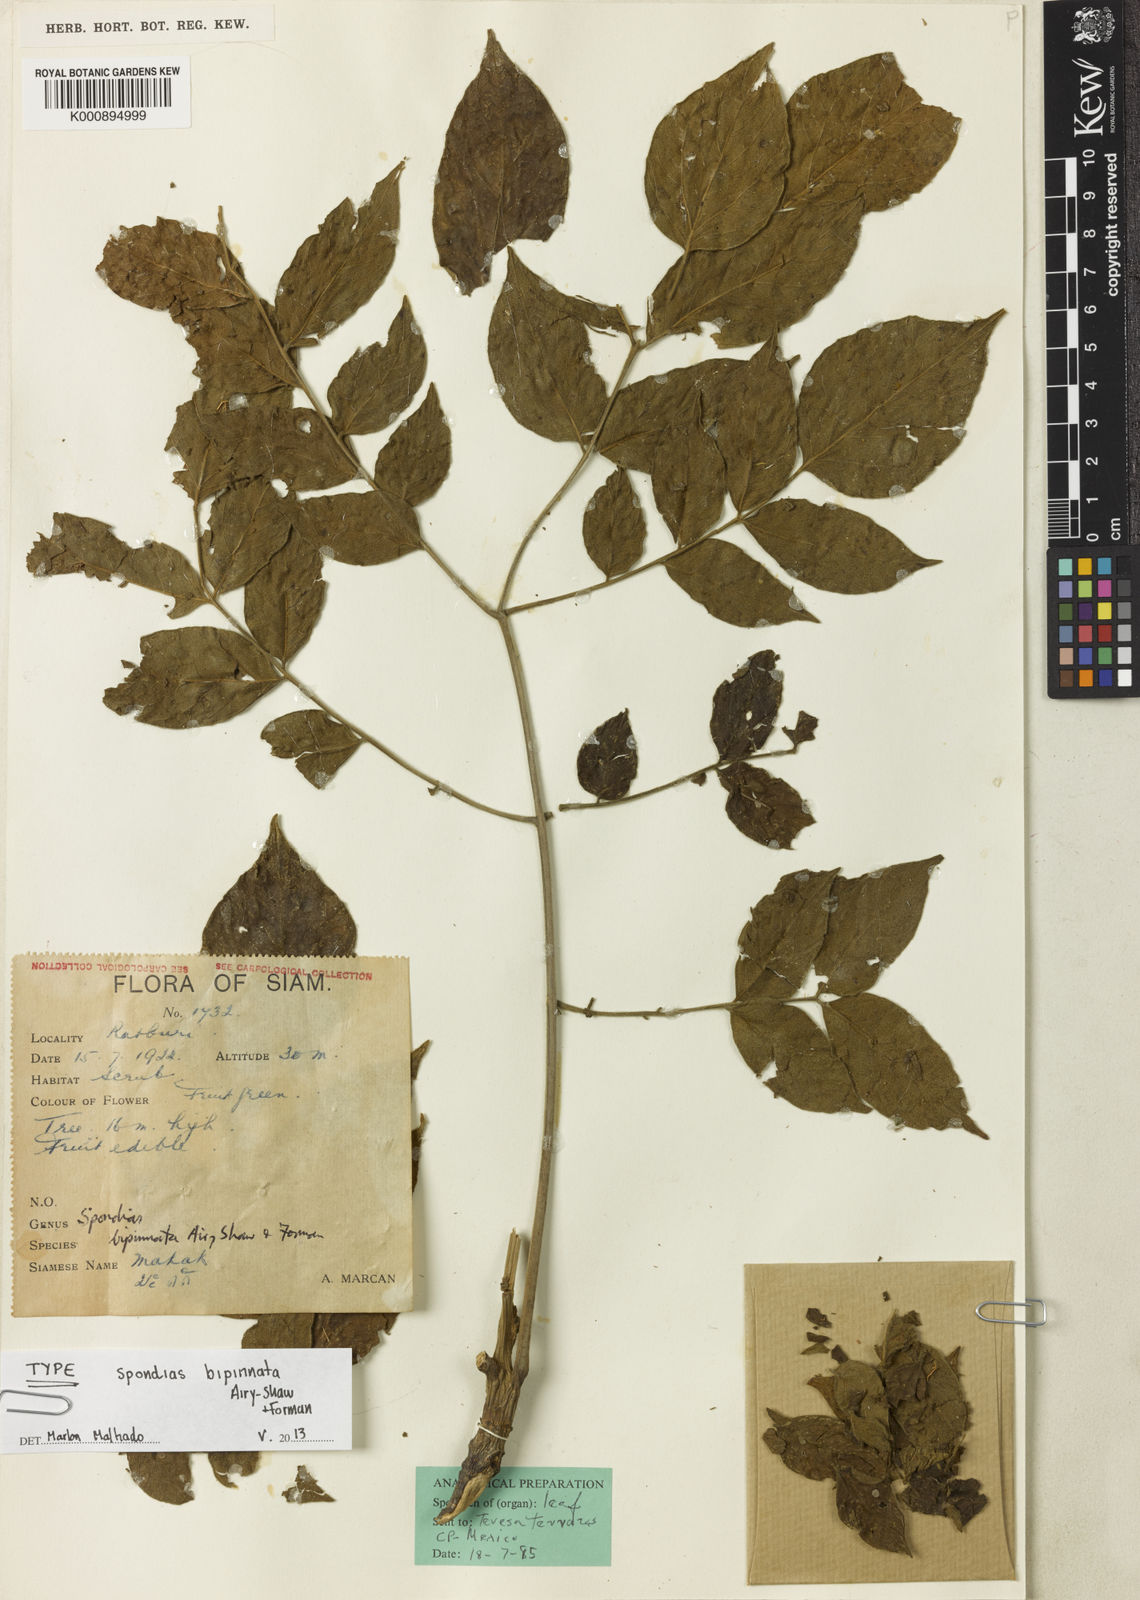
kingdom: Plantae
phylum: Tracheophyta
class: Magnoliopsida
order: Sapindales
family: Anacardiaceae
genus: Spondias
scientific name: Spondias
